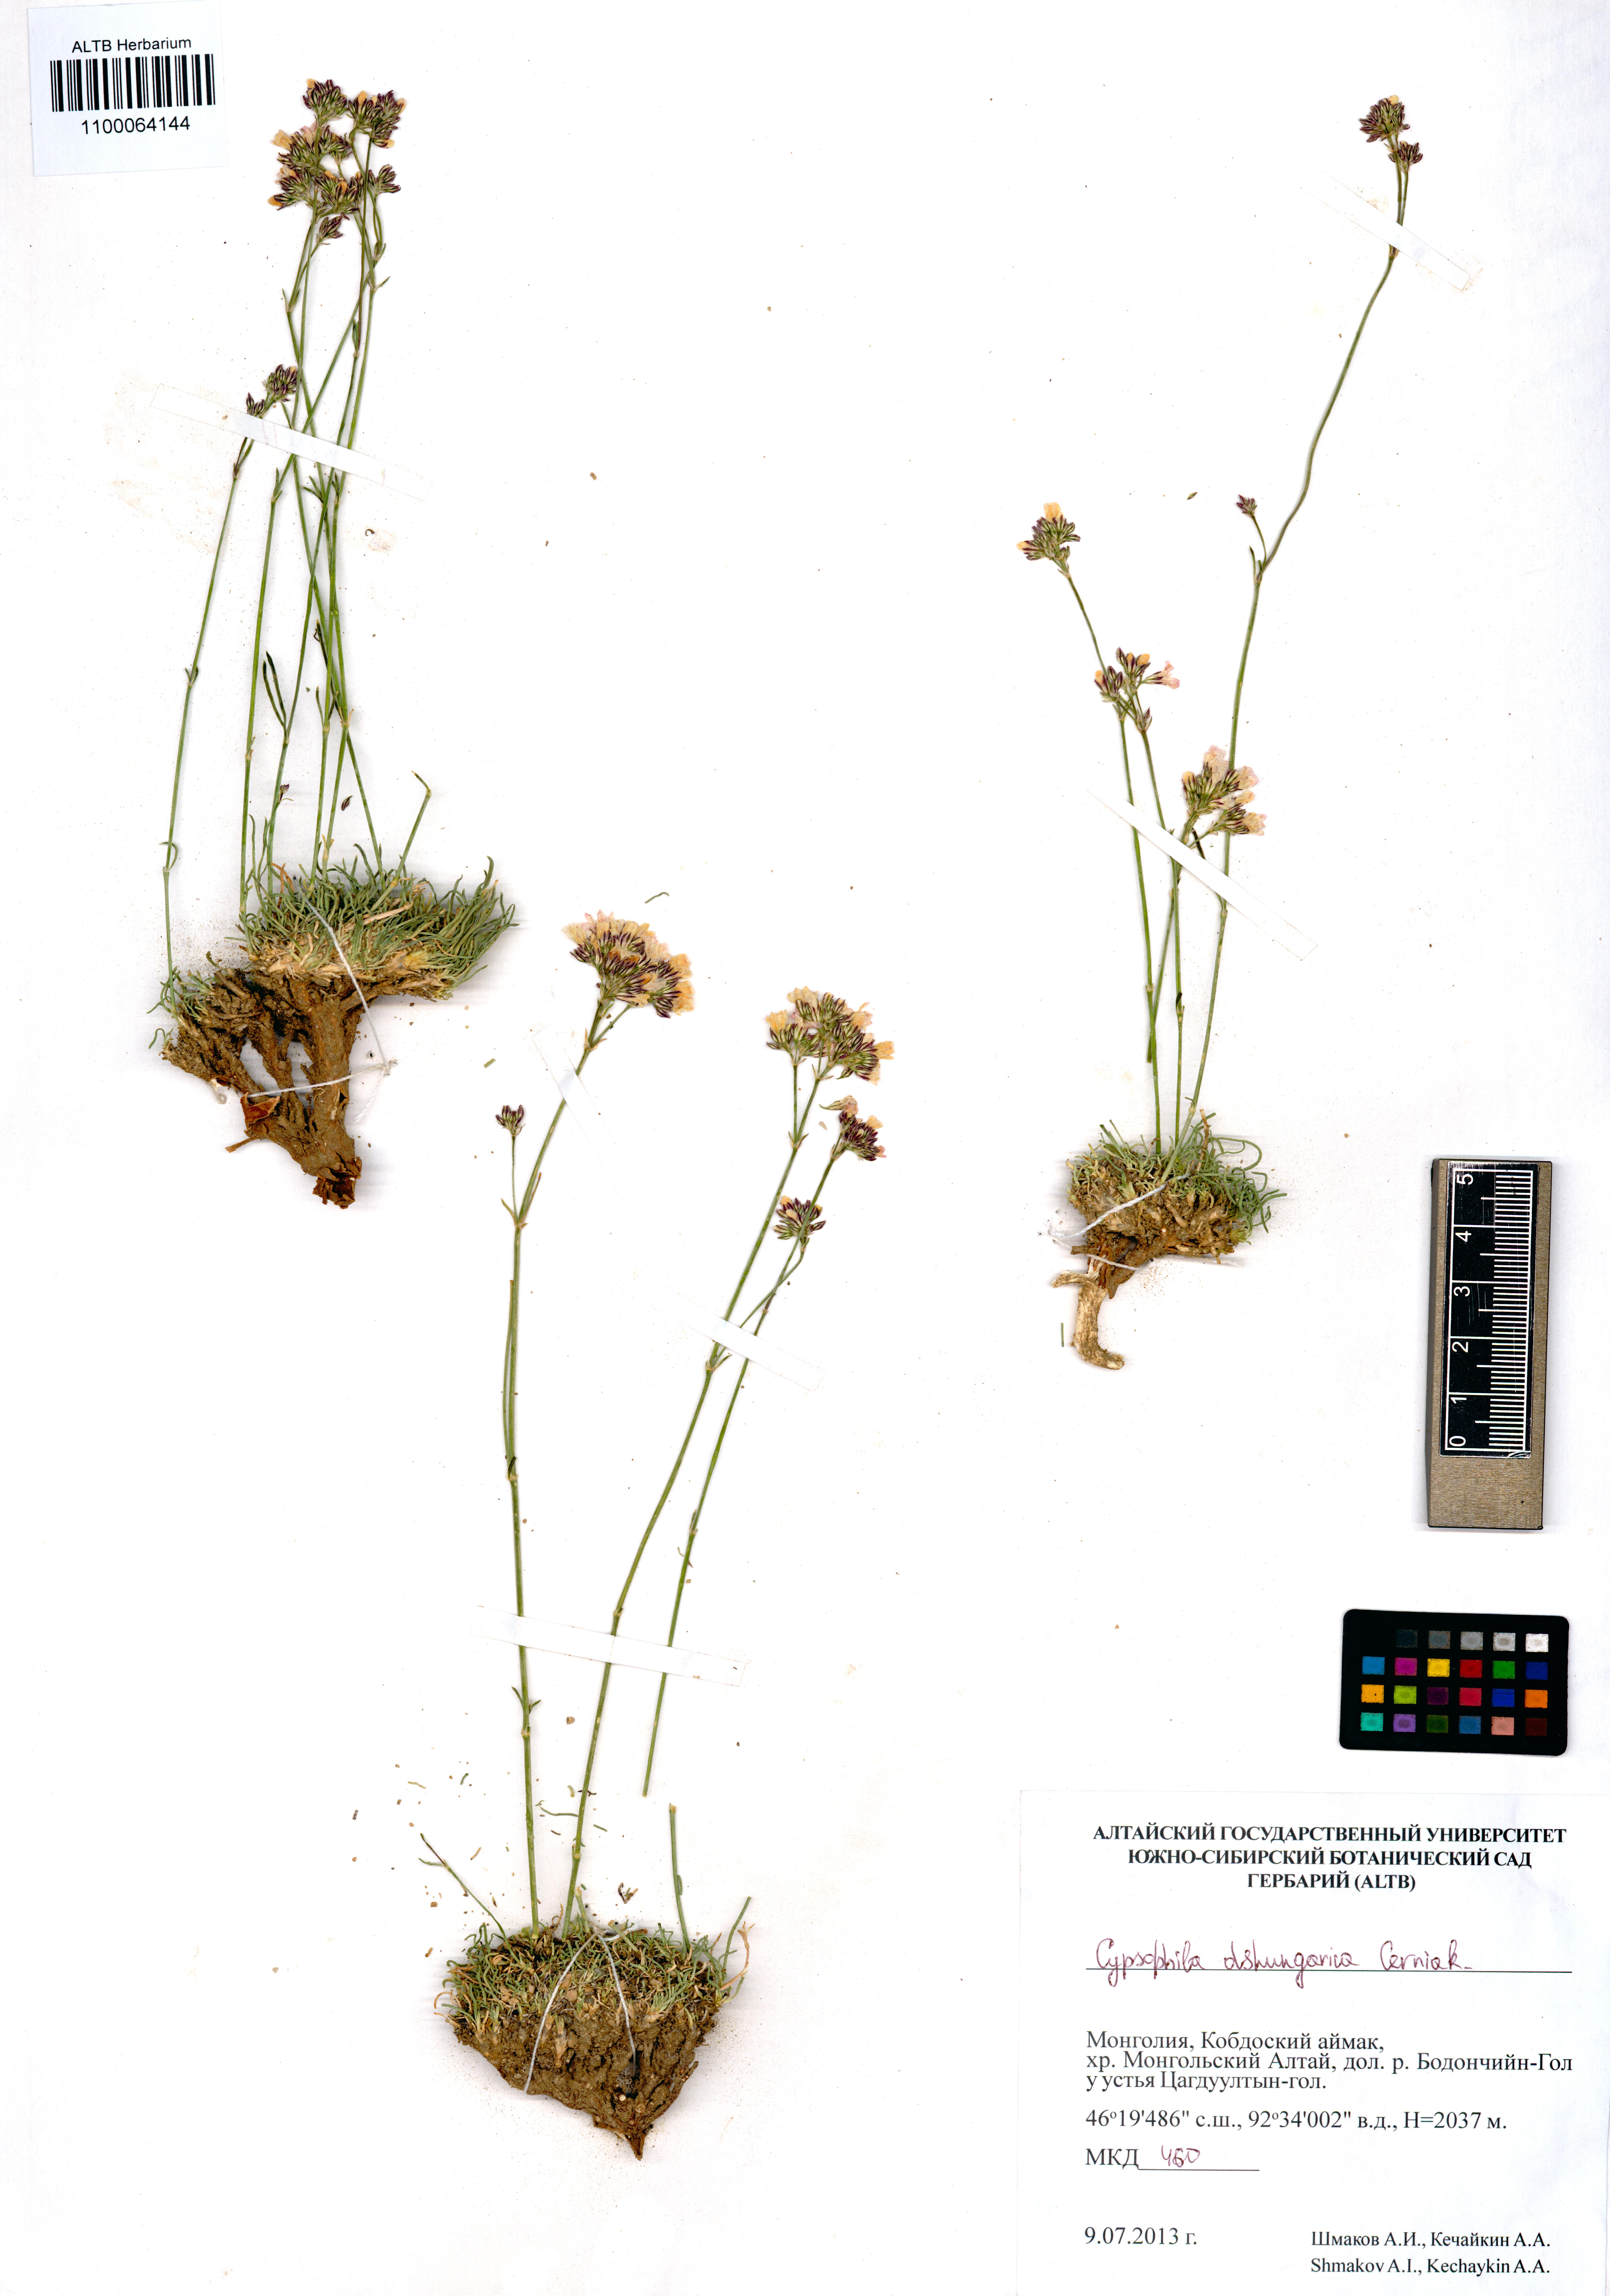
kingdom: Plantae
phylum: Tracheophyta
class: Magnoliopsida
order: Caryophyllales
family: Caryophyllaceae
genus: Gypsophila
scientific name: Gypsophila capituliflora
